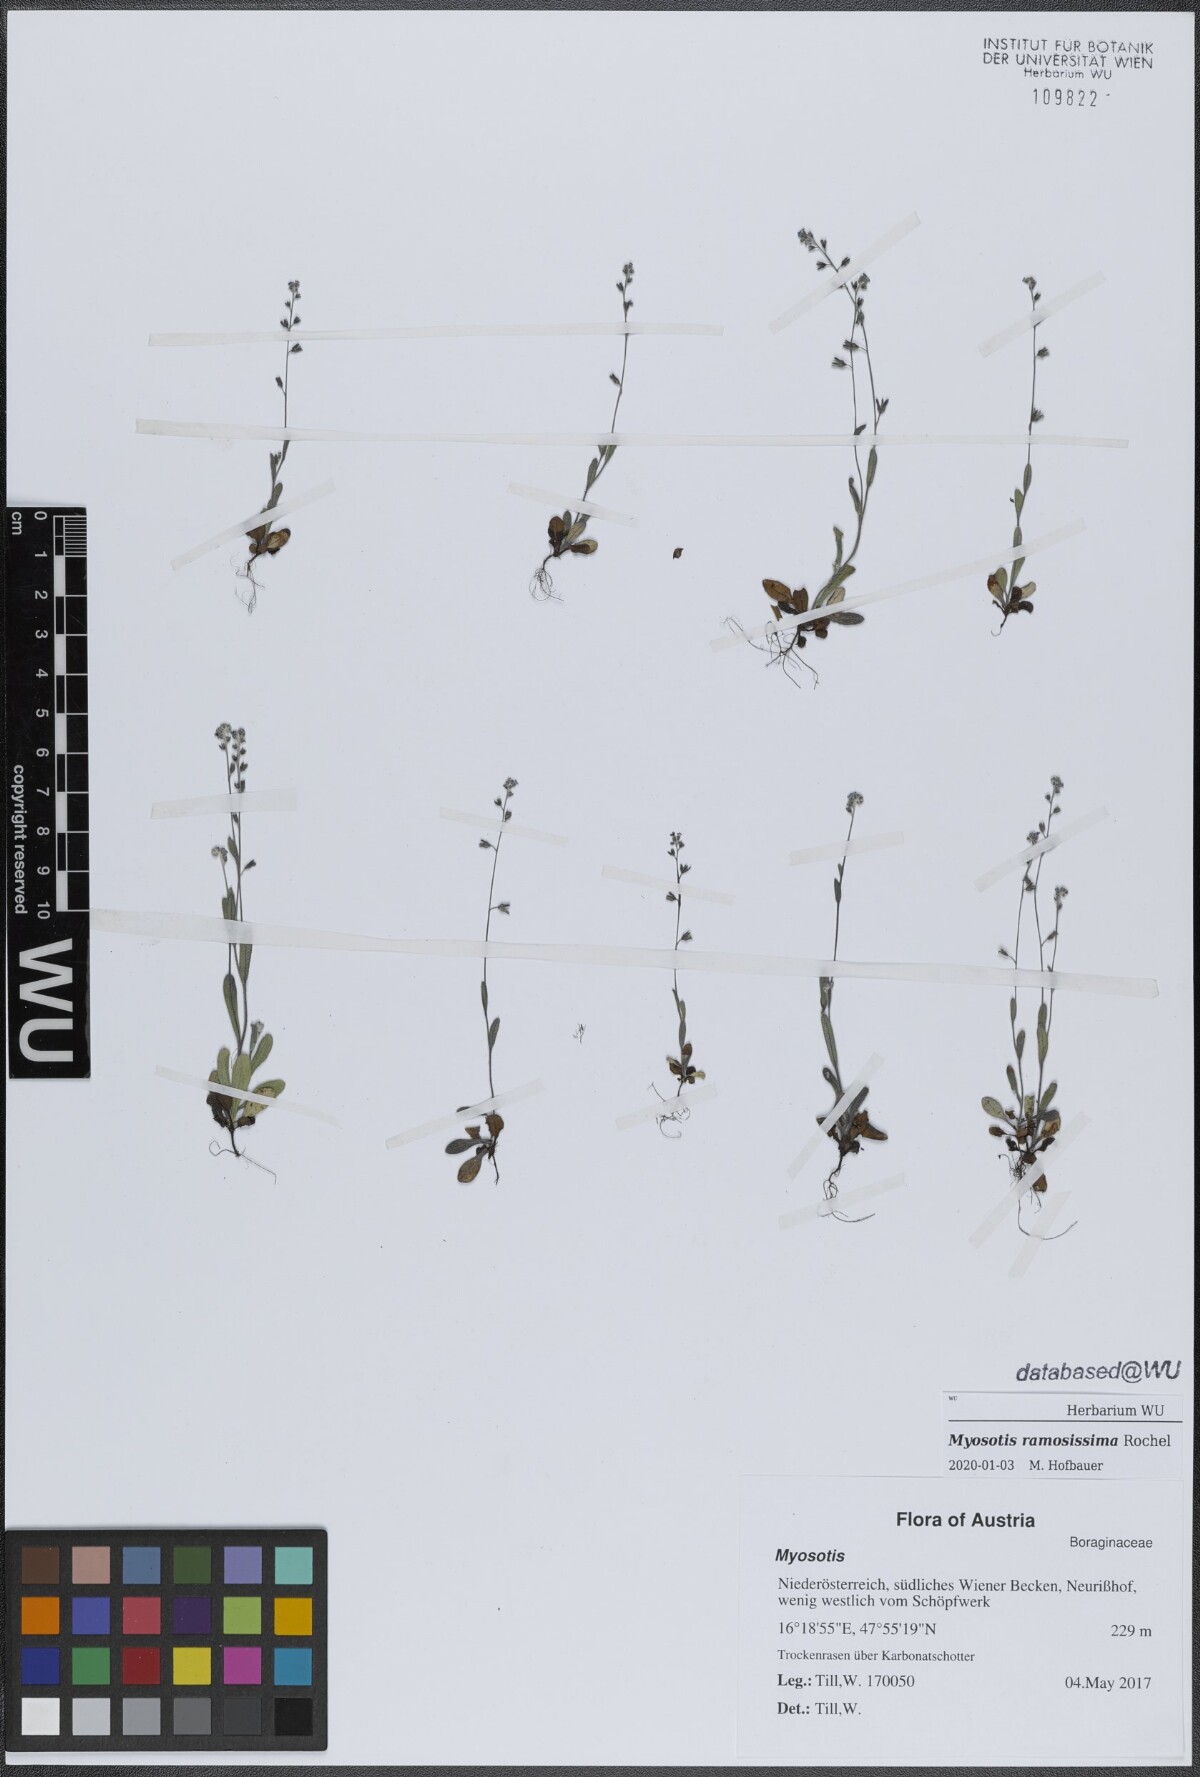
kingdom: Plantae
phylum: Tracheophyta
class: Magnoliopsida
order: Boraginales
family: Boraginaceae
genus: Myosotis
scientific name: Myosotis ramosissima
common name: Early forget-me-not
